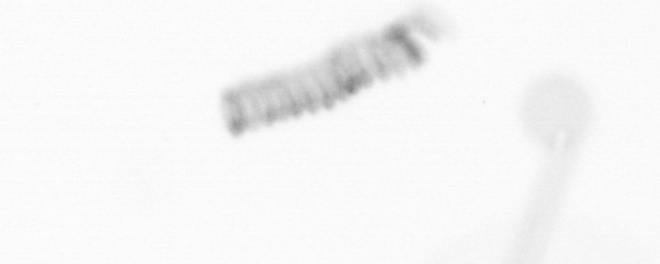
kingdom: Chromista
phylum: Ochrophyta
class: Bacillariophyceae
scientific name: Bacillariophyceae
